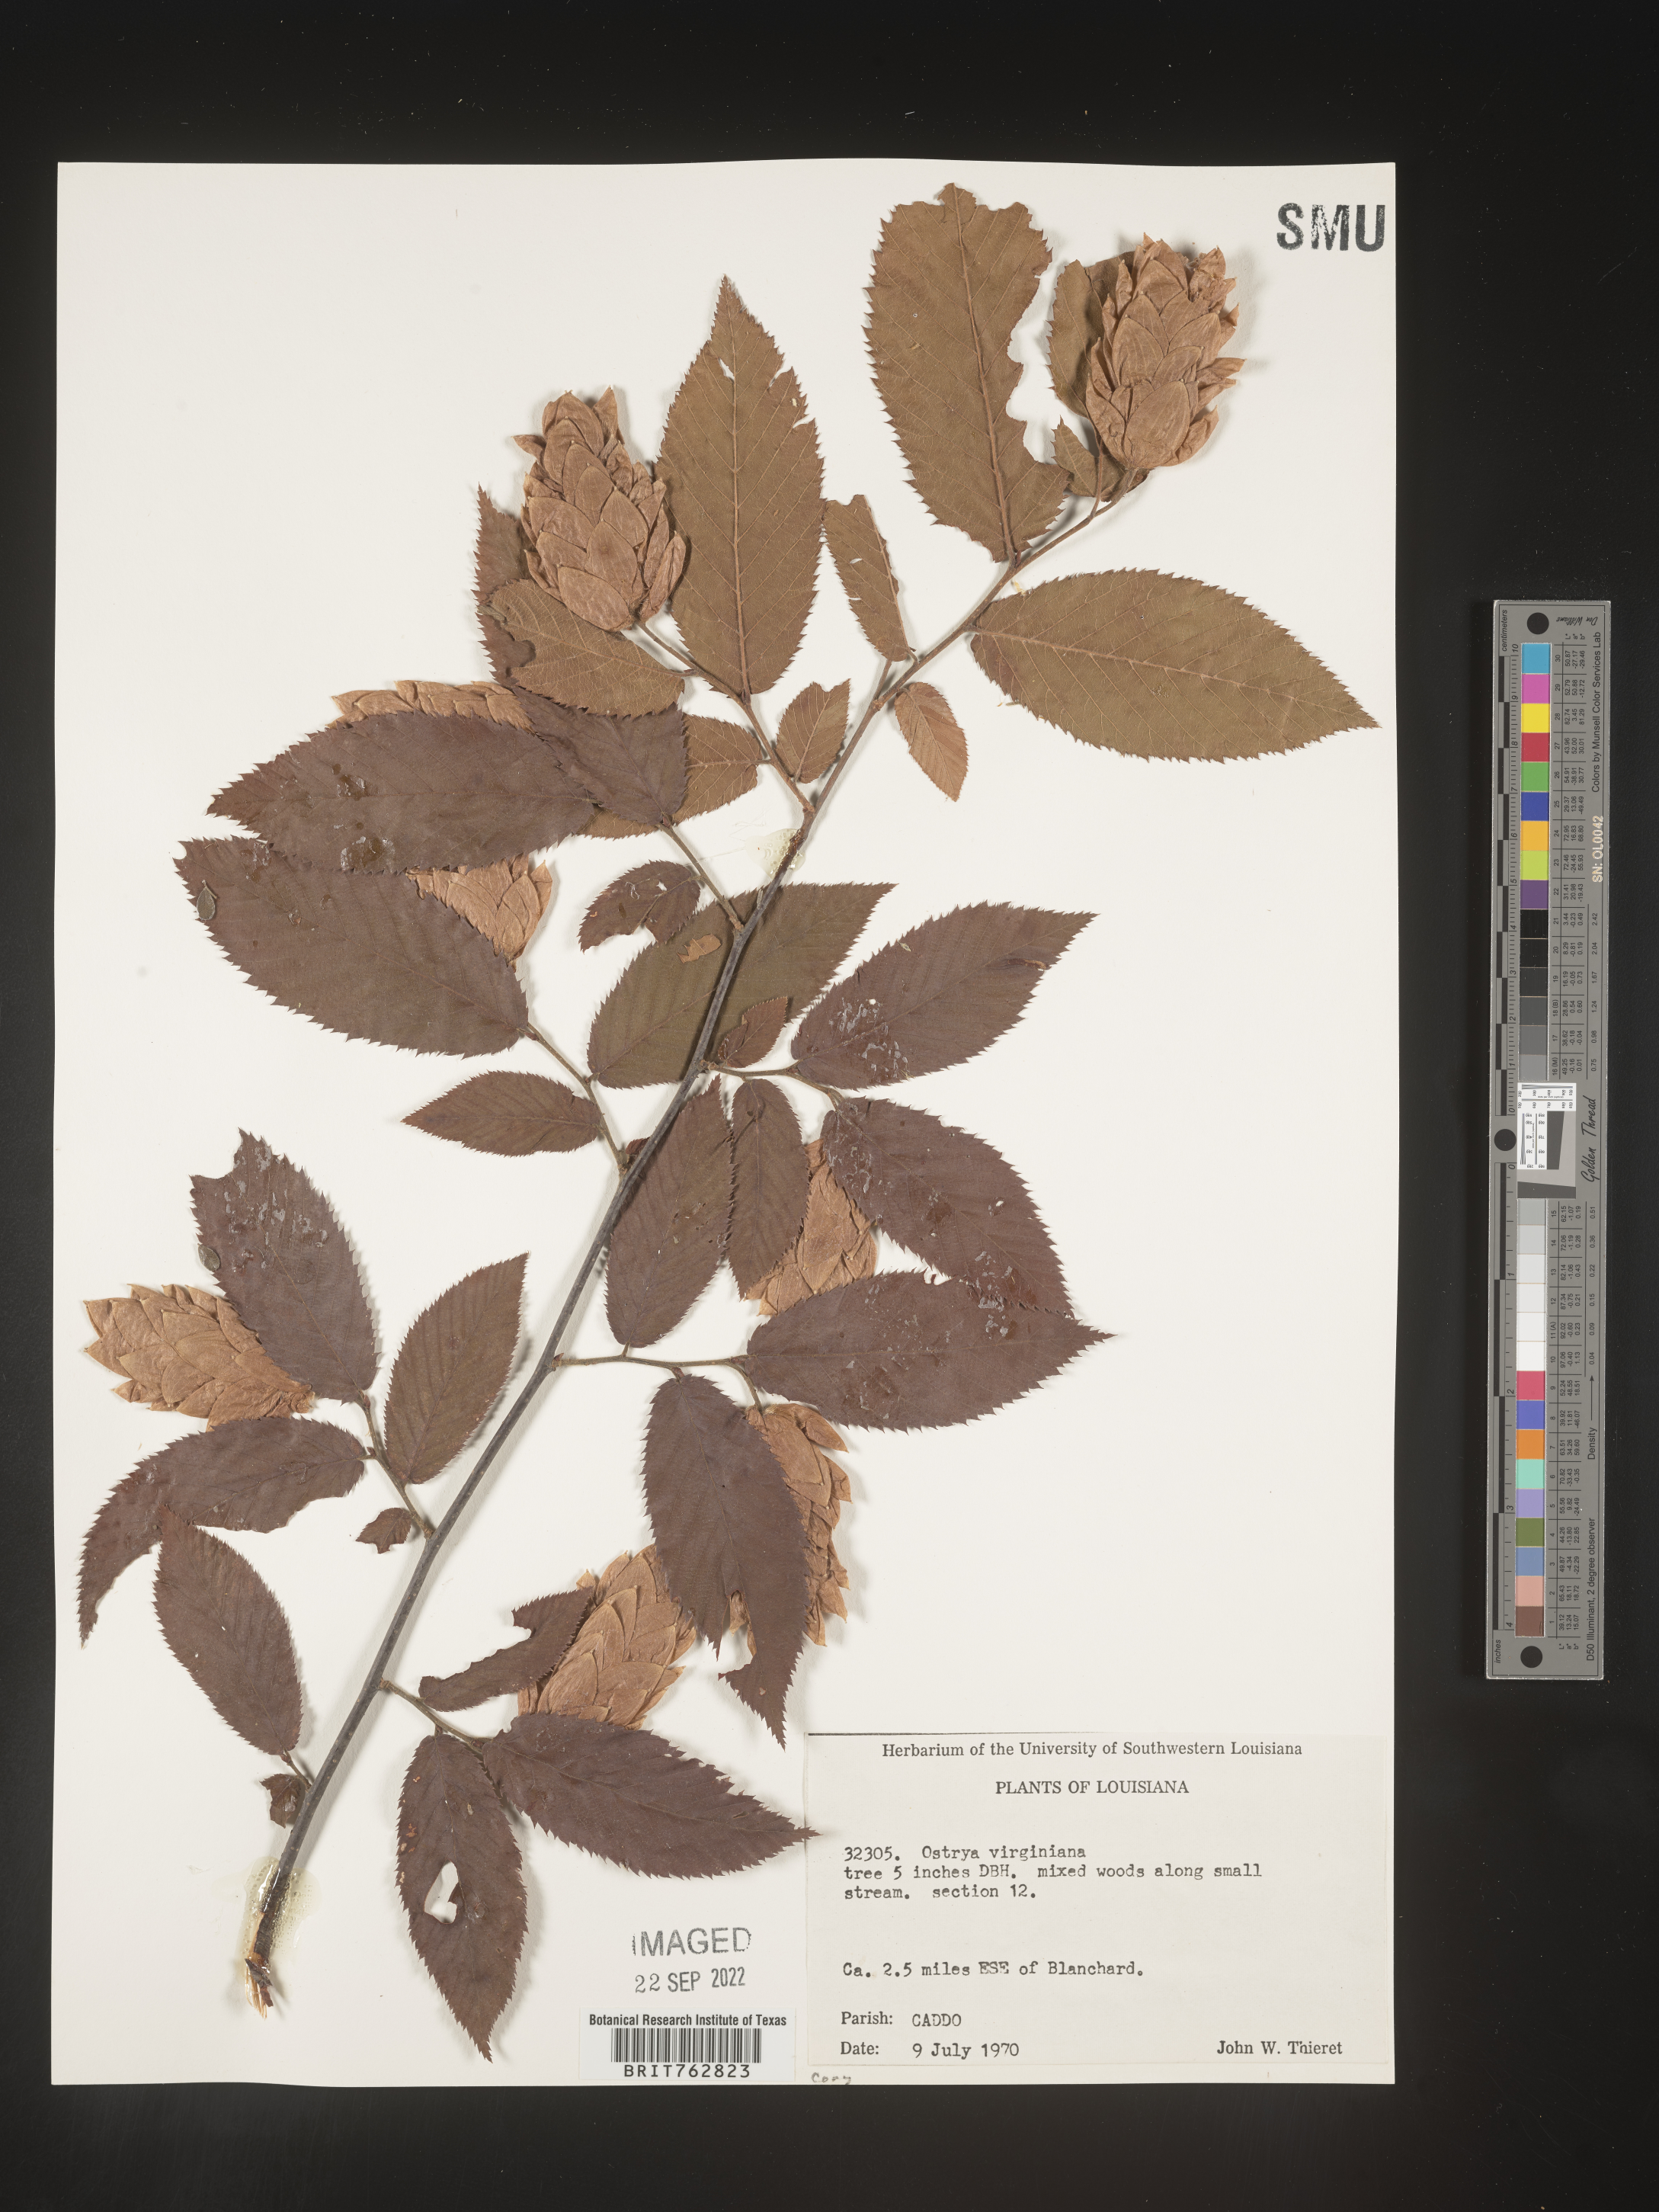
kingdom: Plantae
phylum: Tracheophyta
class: Magnoliopsida
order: Fagales
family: Betulaceae
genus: Ostrya
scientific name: Ostrya virginiana
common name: Ironwood
